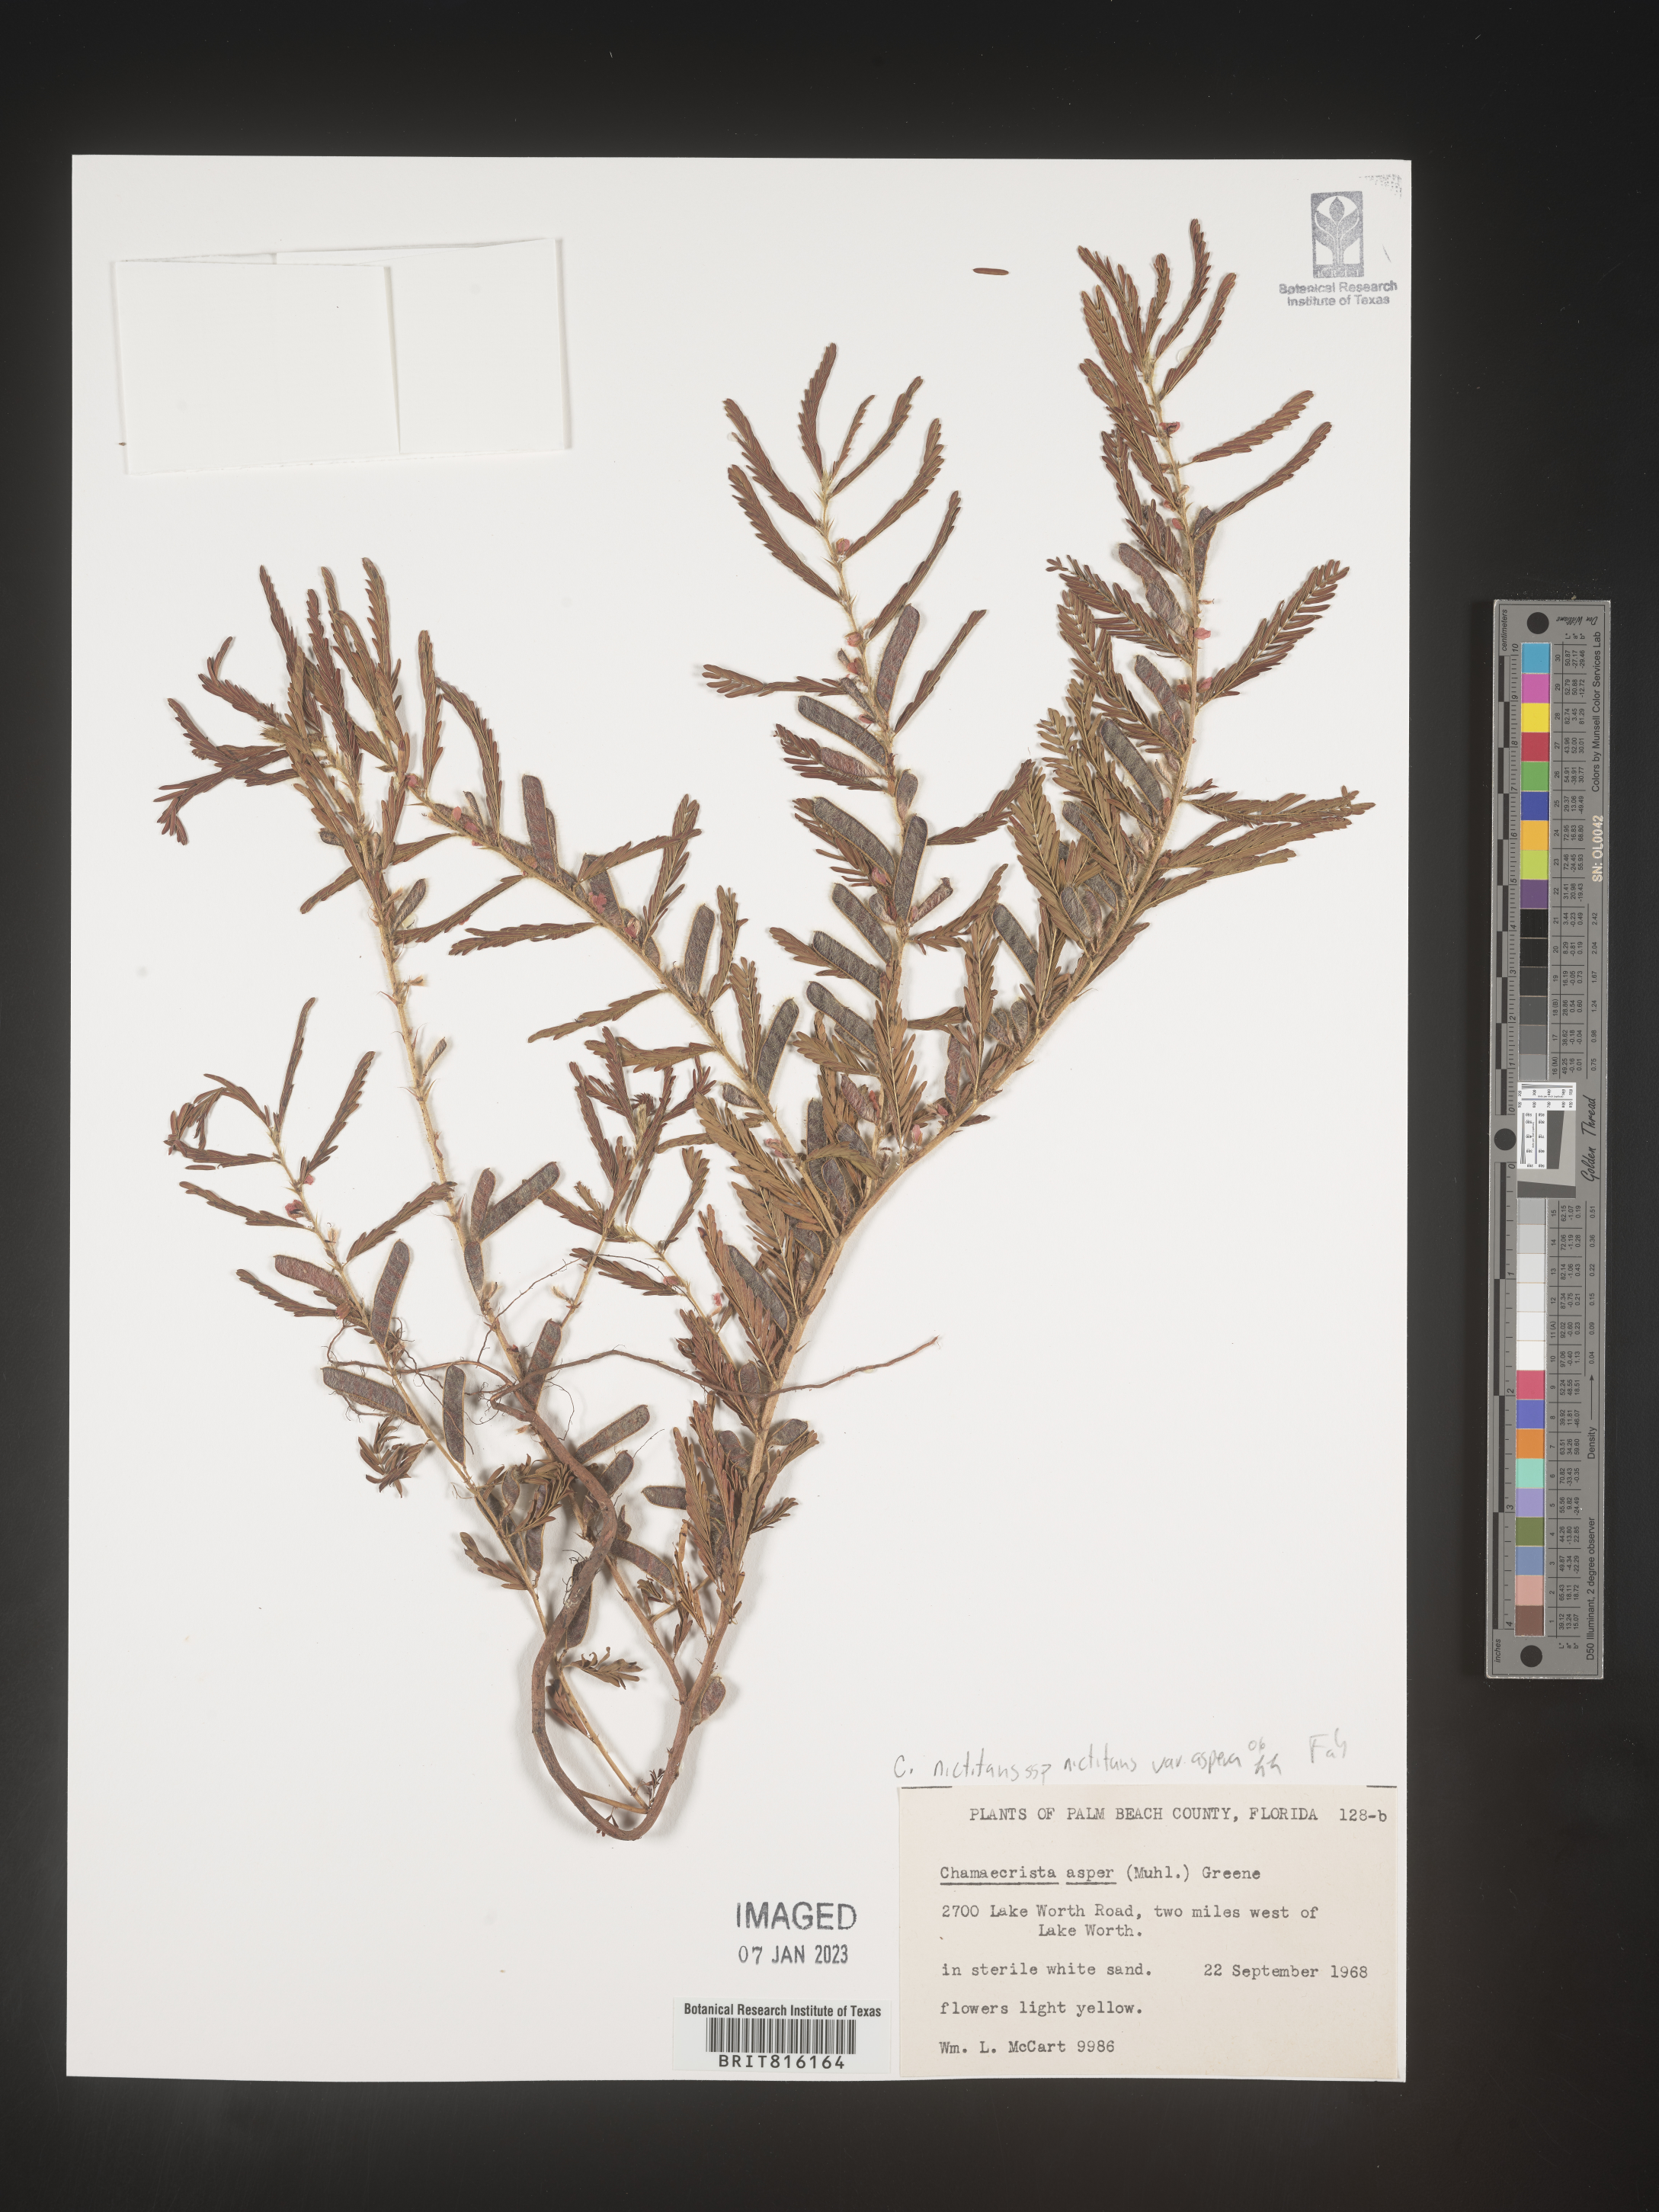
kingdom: Plantae
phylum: Tracheophyta
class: Magnoliopsida
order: Fabales
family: Fabaceae
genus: Chamaecrista
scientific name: Chamaecrista
